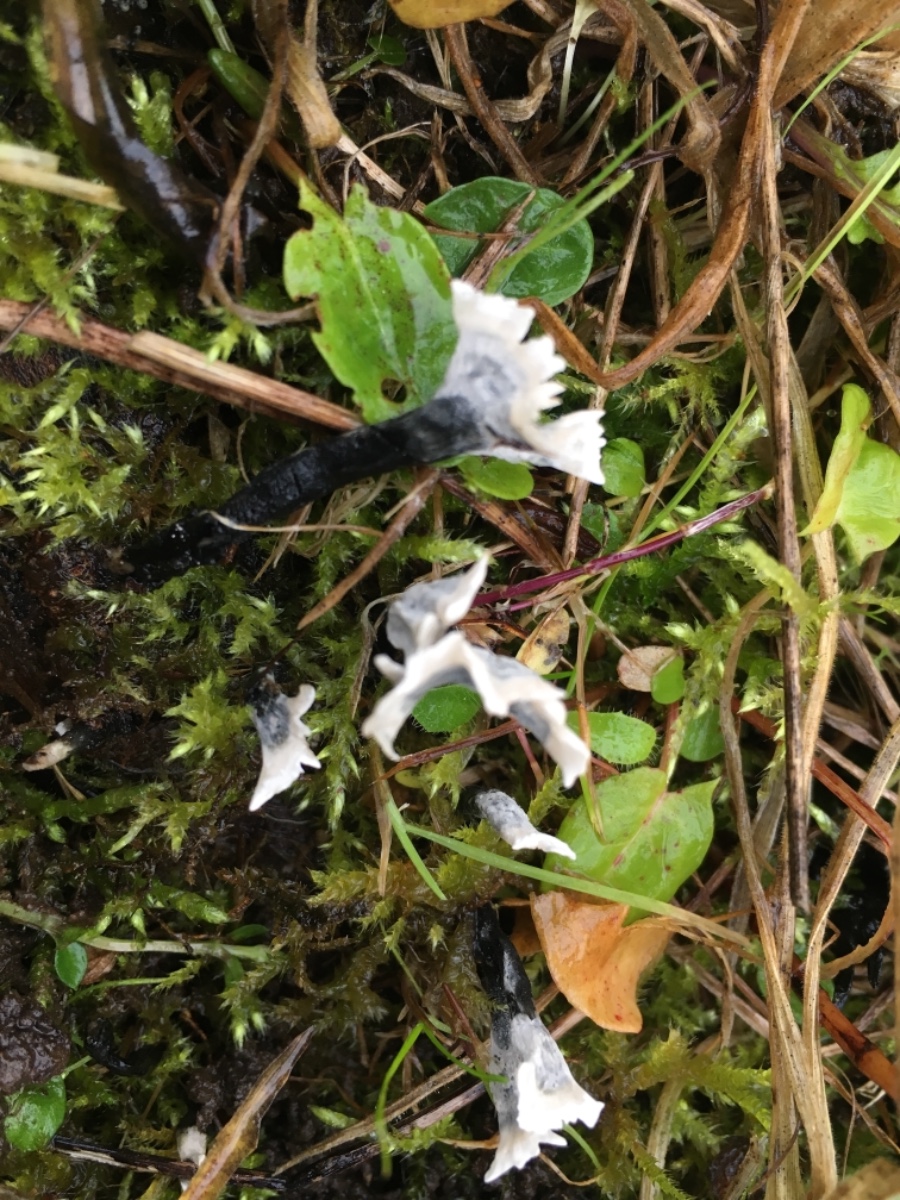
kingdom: Fungi
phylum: Ascomycota
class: Sordariomycetes
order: Xylariales
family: Xylariaceae
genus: Xylaria
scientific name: Xylaria hypoxylon
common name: grenet stødsvamp
